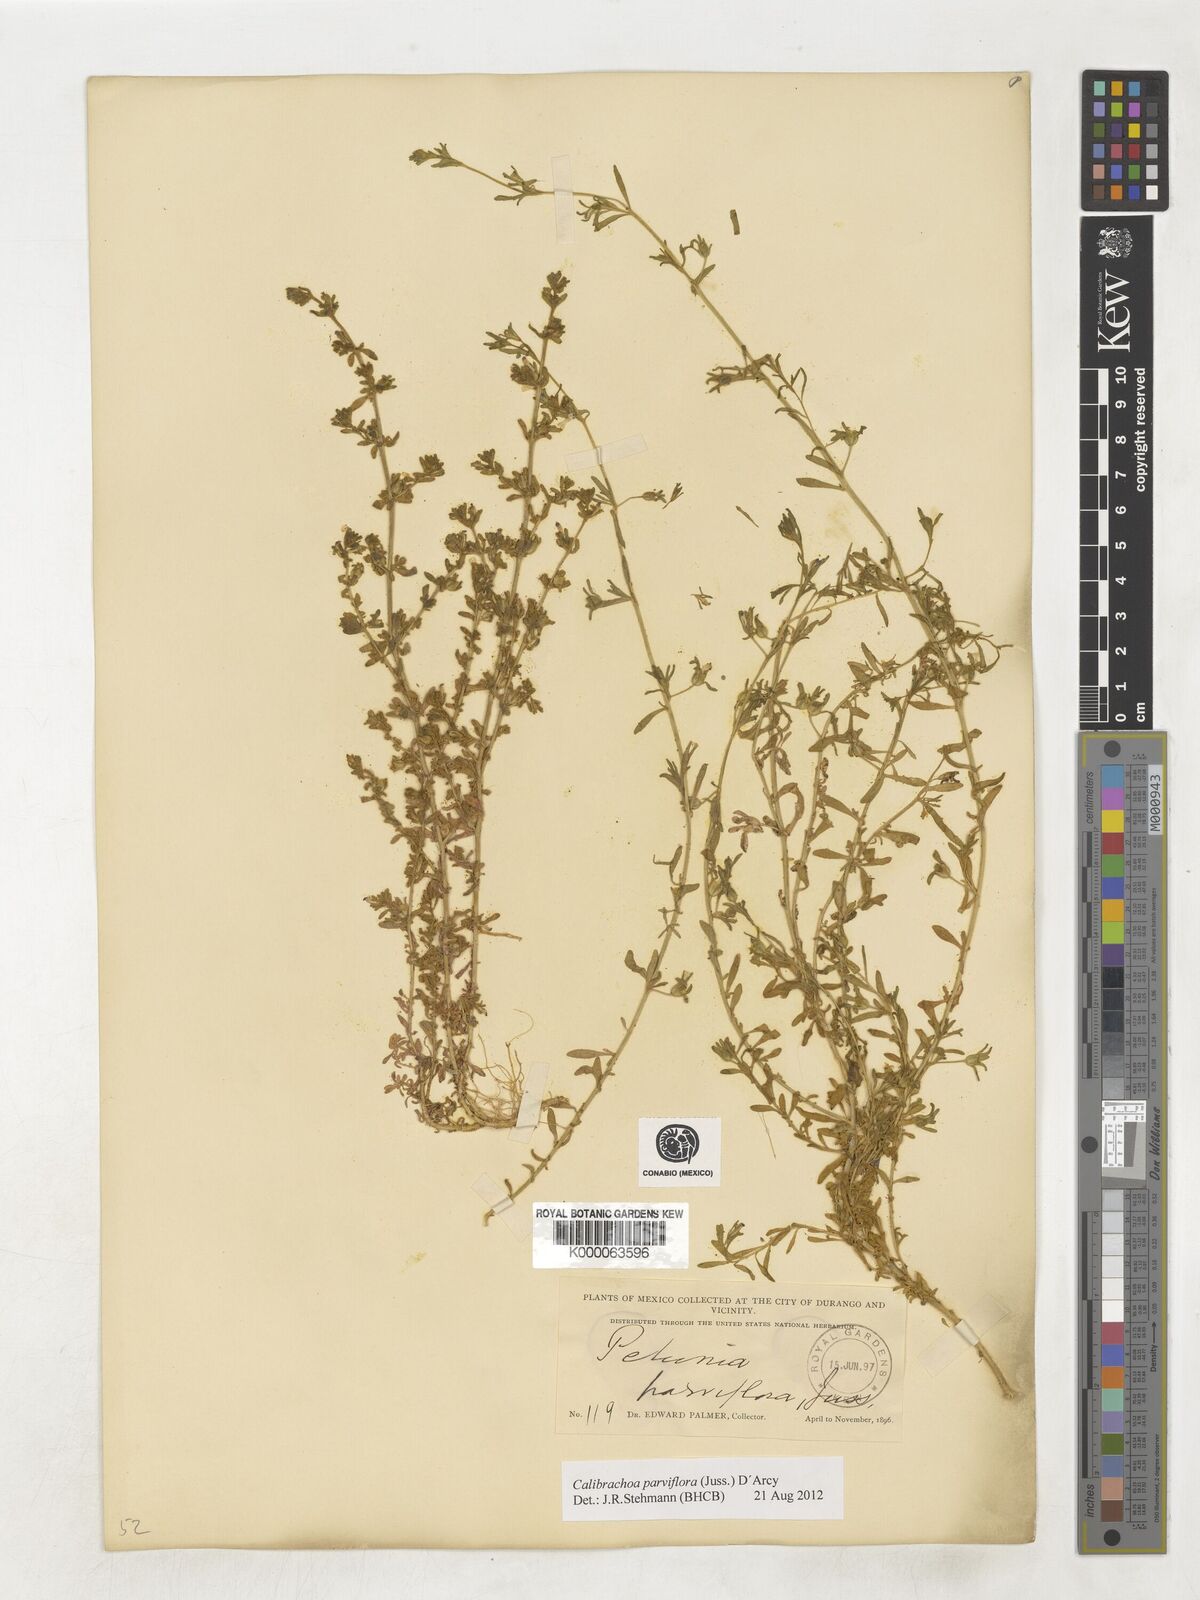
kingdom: Plantae
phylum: Tracheophyta
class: Magnoliopsida
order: Solanales
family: Solanaceae
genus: Calibrachoa
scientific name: Calibrachoa parviflora
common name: Seaside petunia
